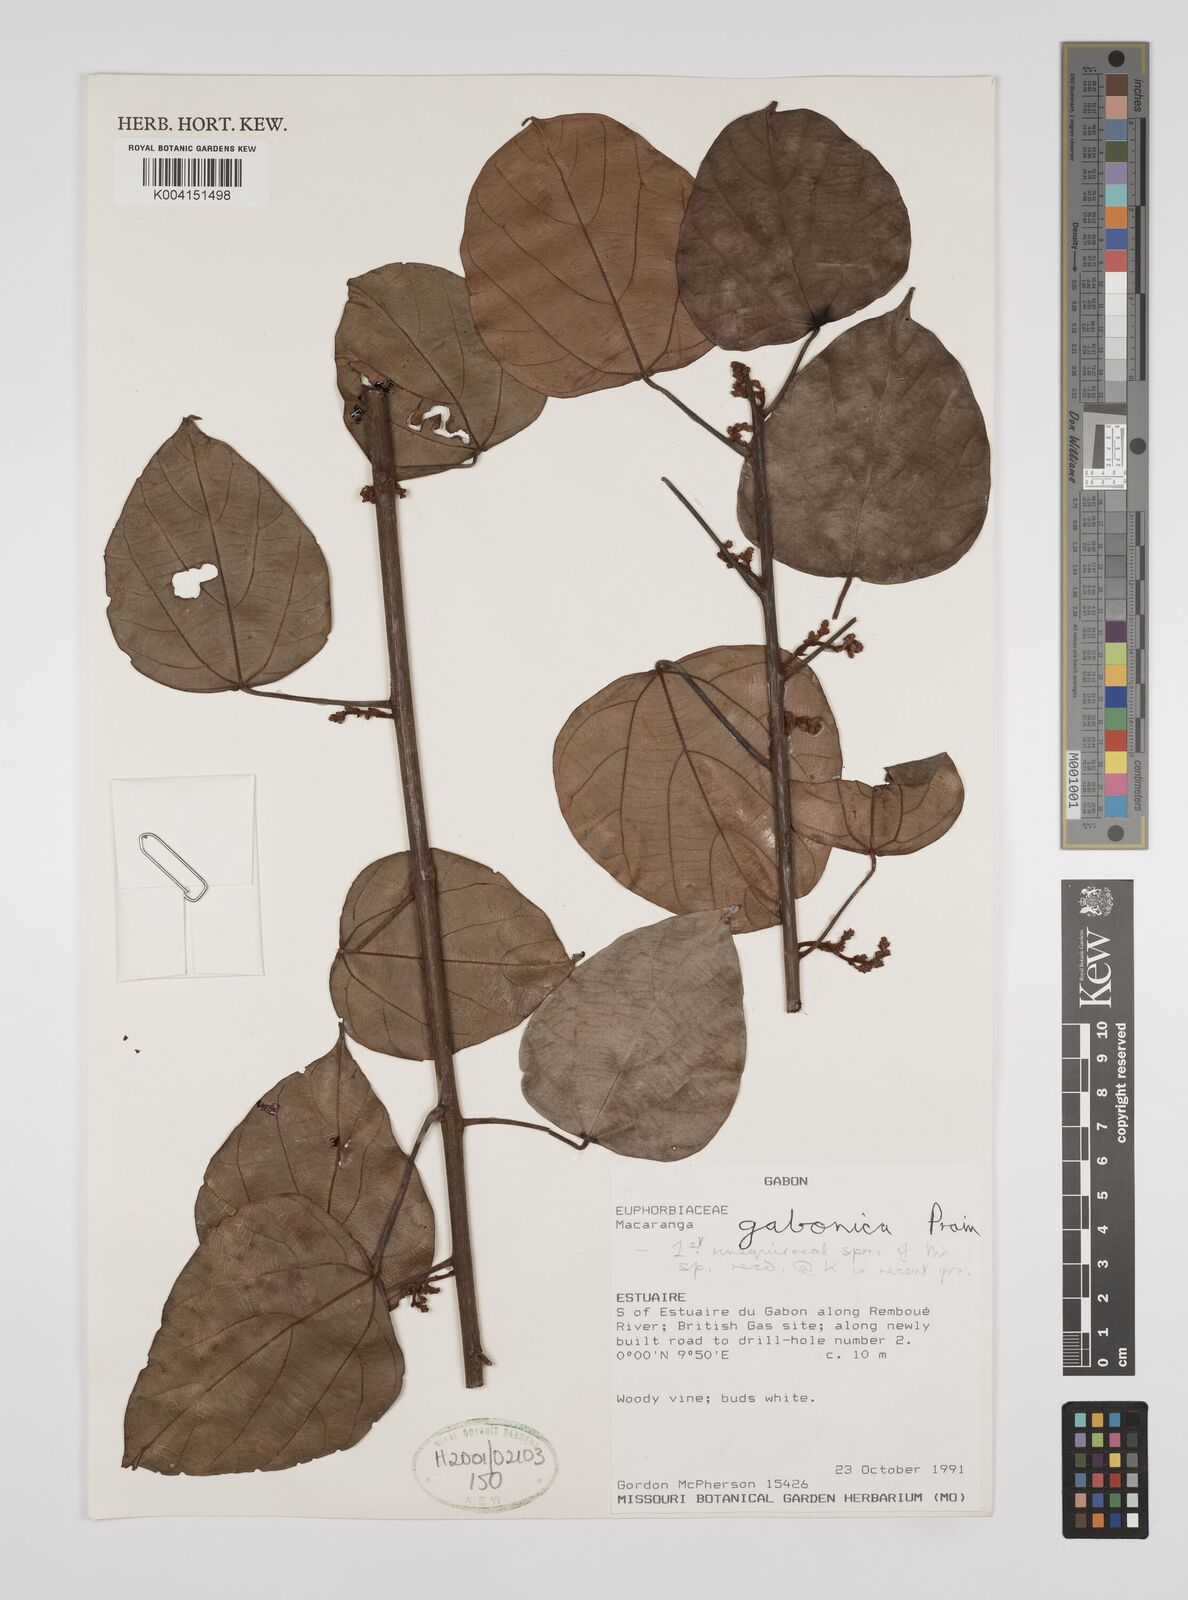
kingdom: Plantae
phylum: Tracheophyta
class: Magnoliopsida
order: Malpighiales
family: Euphorbiaceae
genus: Macaranga
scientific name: Macaranga gabunica
